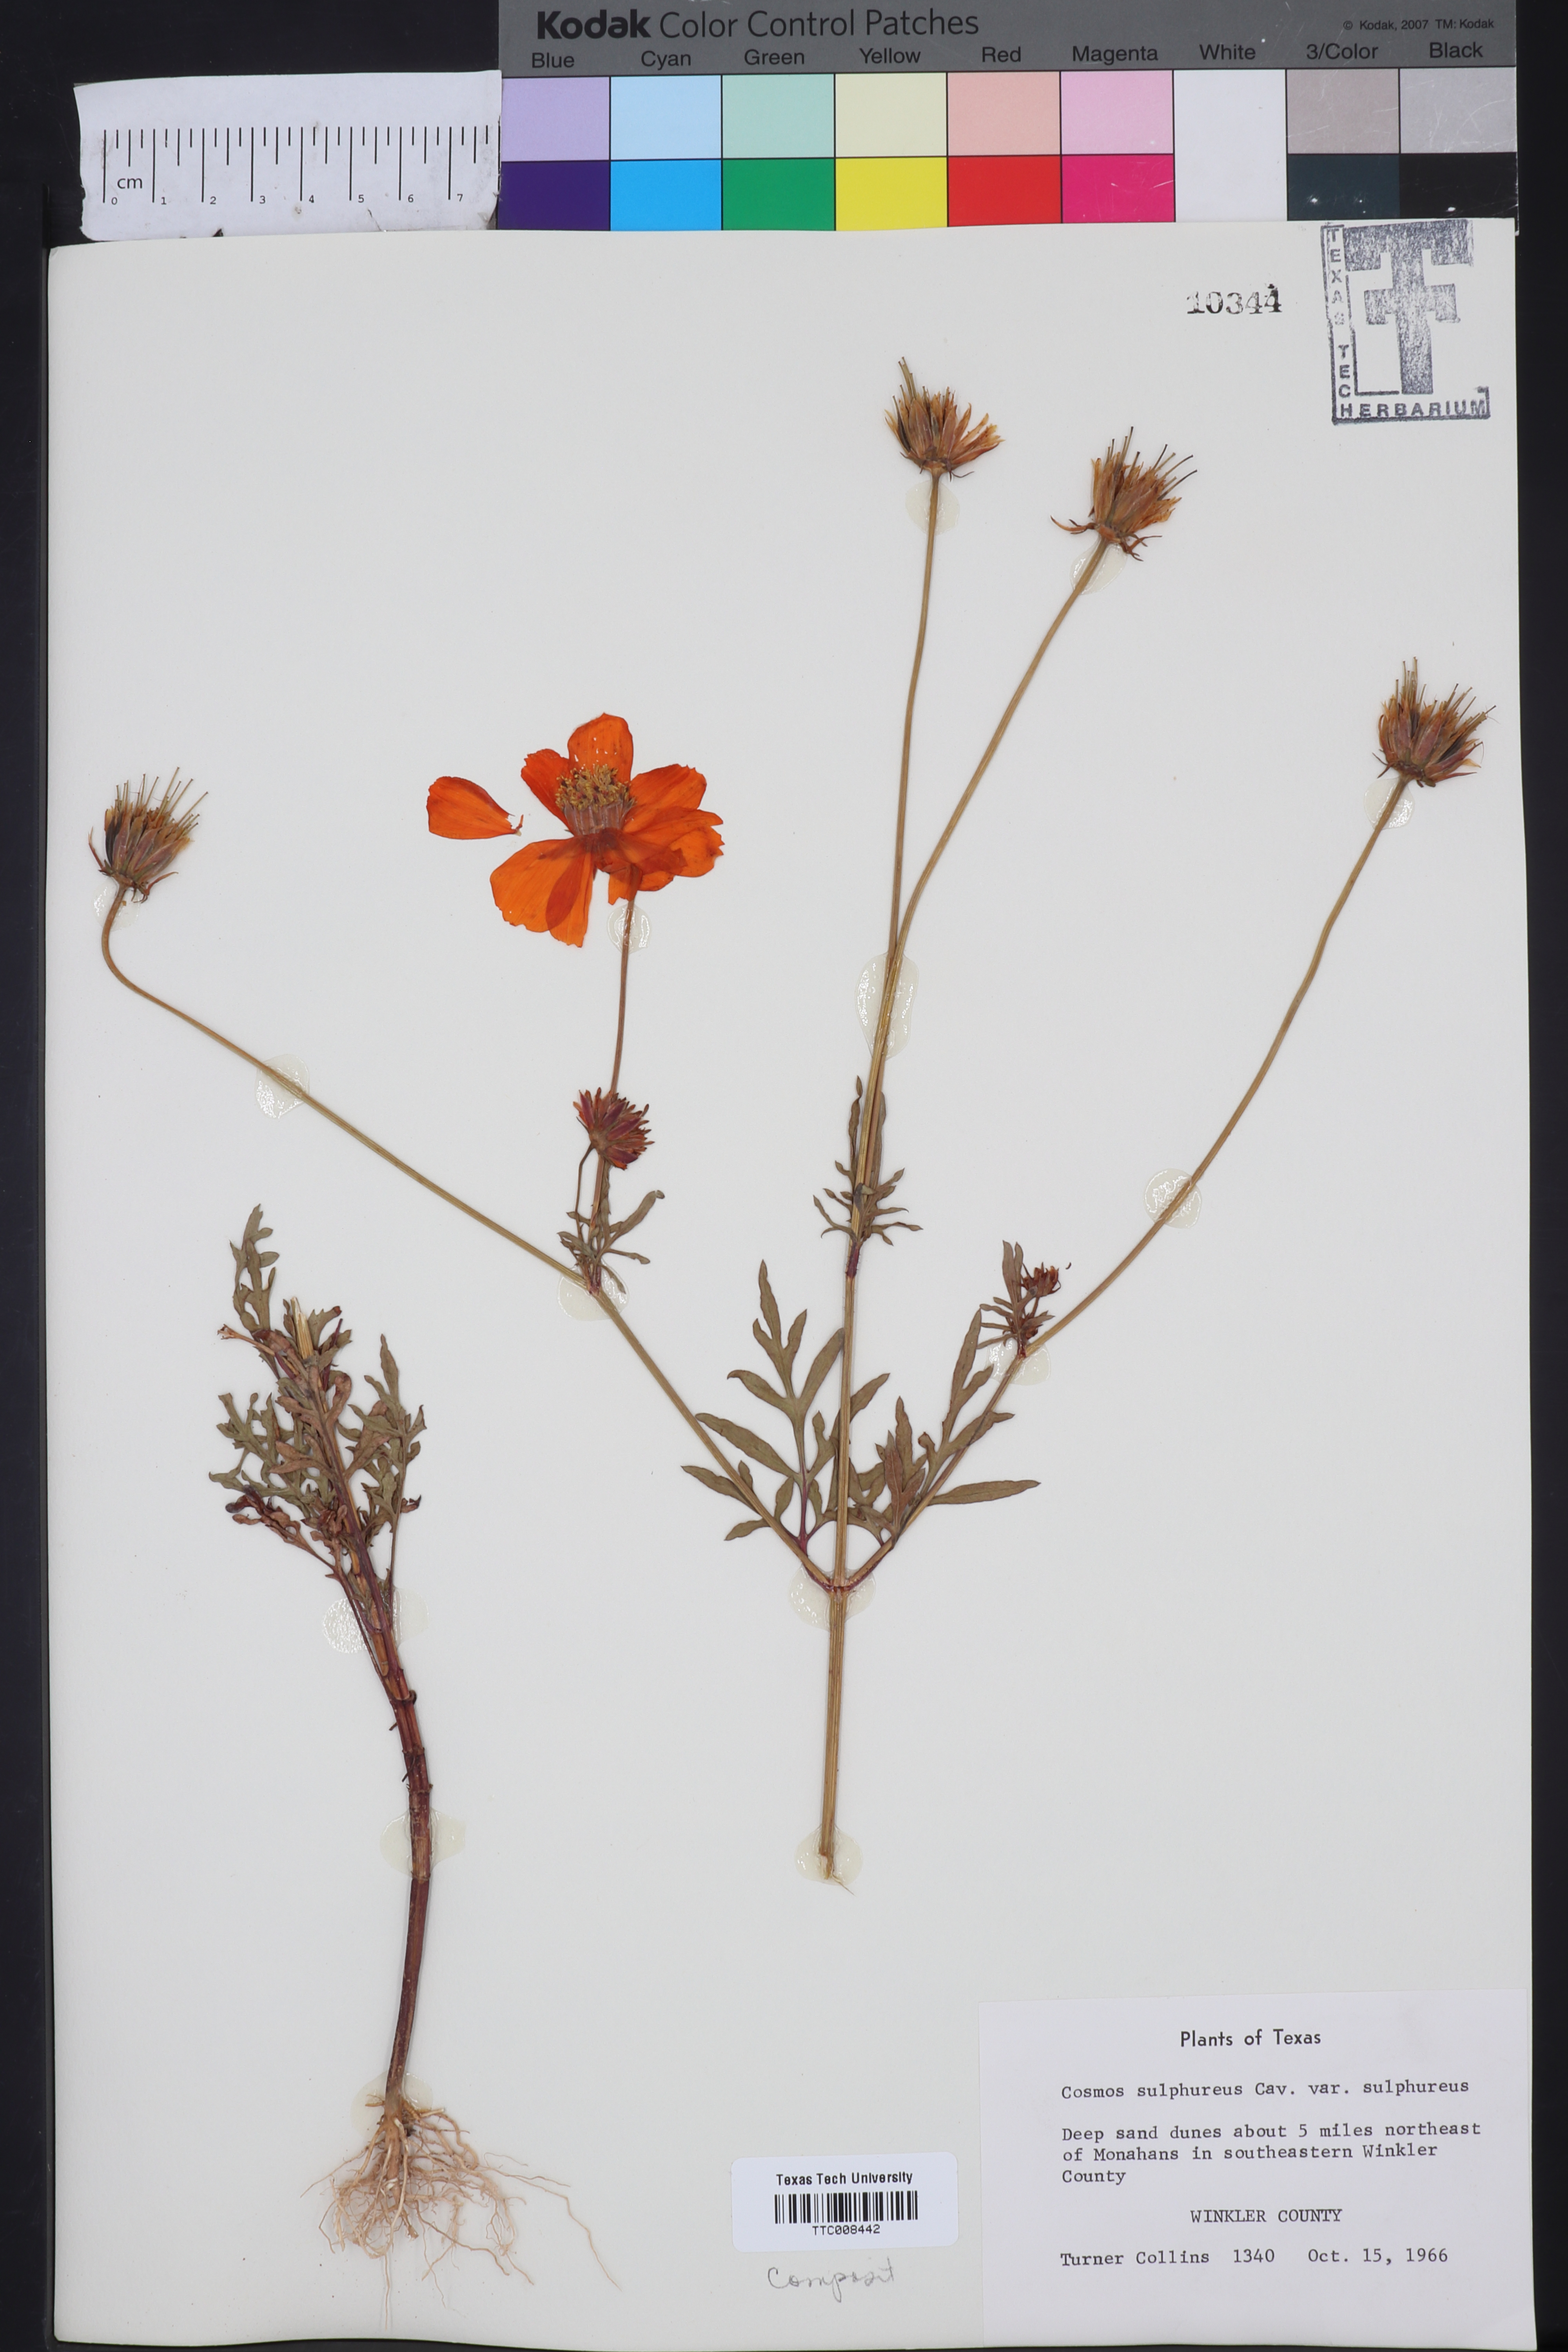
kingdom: Plantae
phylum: Tracheophyta
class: Magnoliopsida
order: Asterales
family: Asteraceae
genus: Cosmos
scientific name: Cosmos sulphureus
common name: Sulphur cosmos
